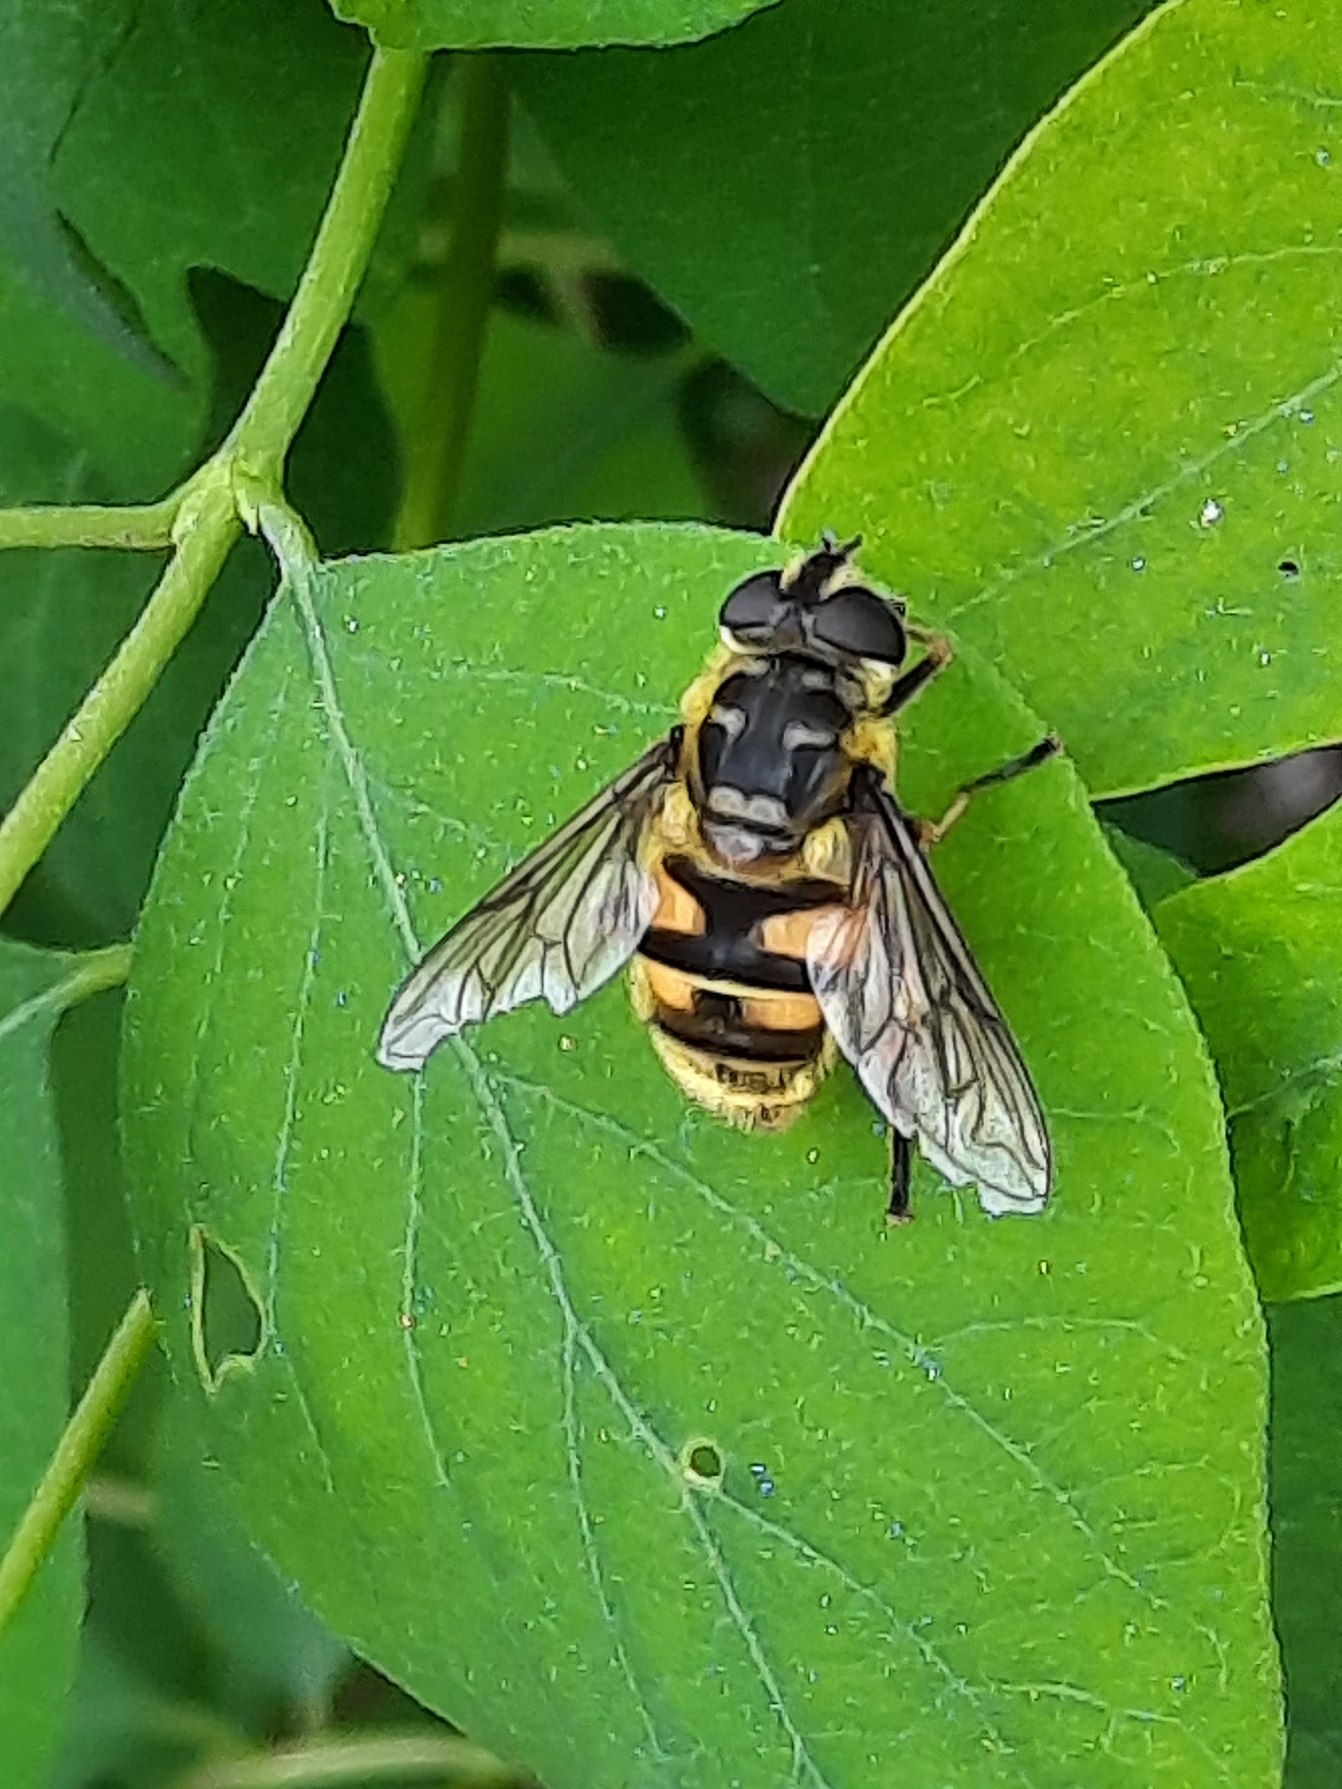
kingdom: Animalia
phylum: Arthropoda
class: Insecta
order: Diptera
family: Syrphidae
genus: Myathropa
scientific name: Myathropa florea
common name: Dødningehoved-svirreflue
